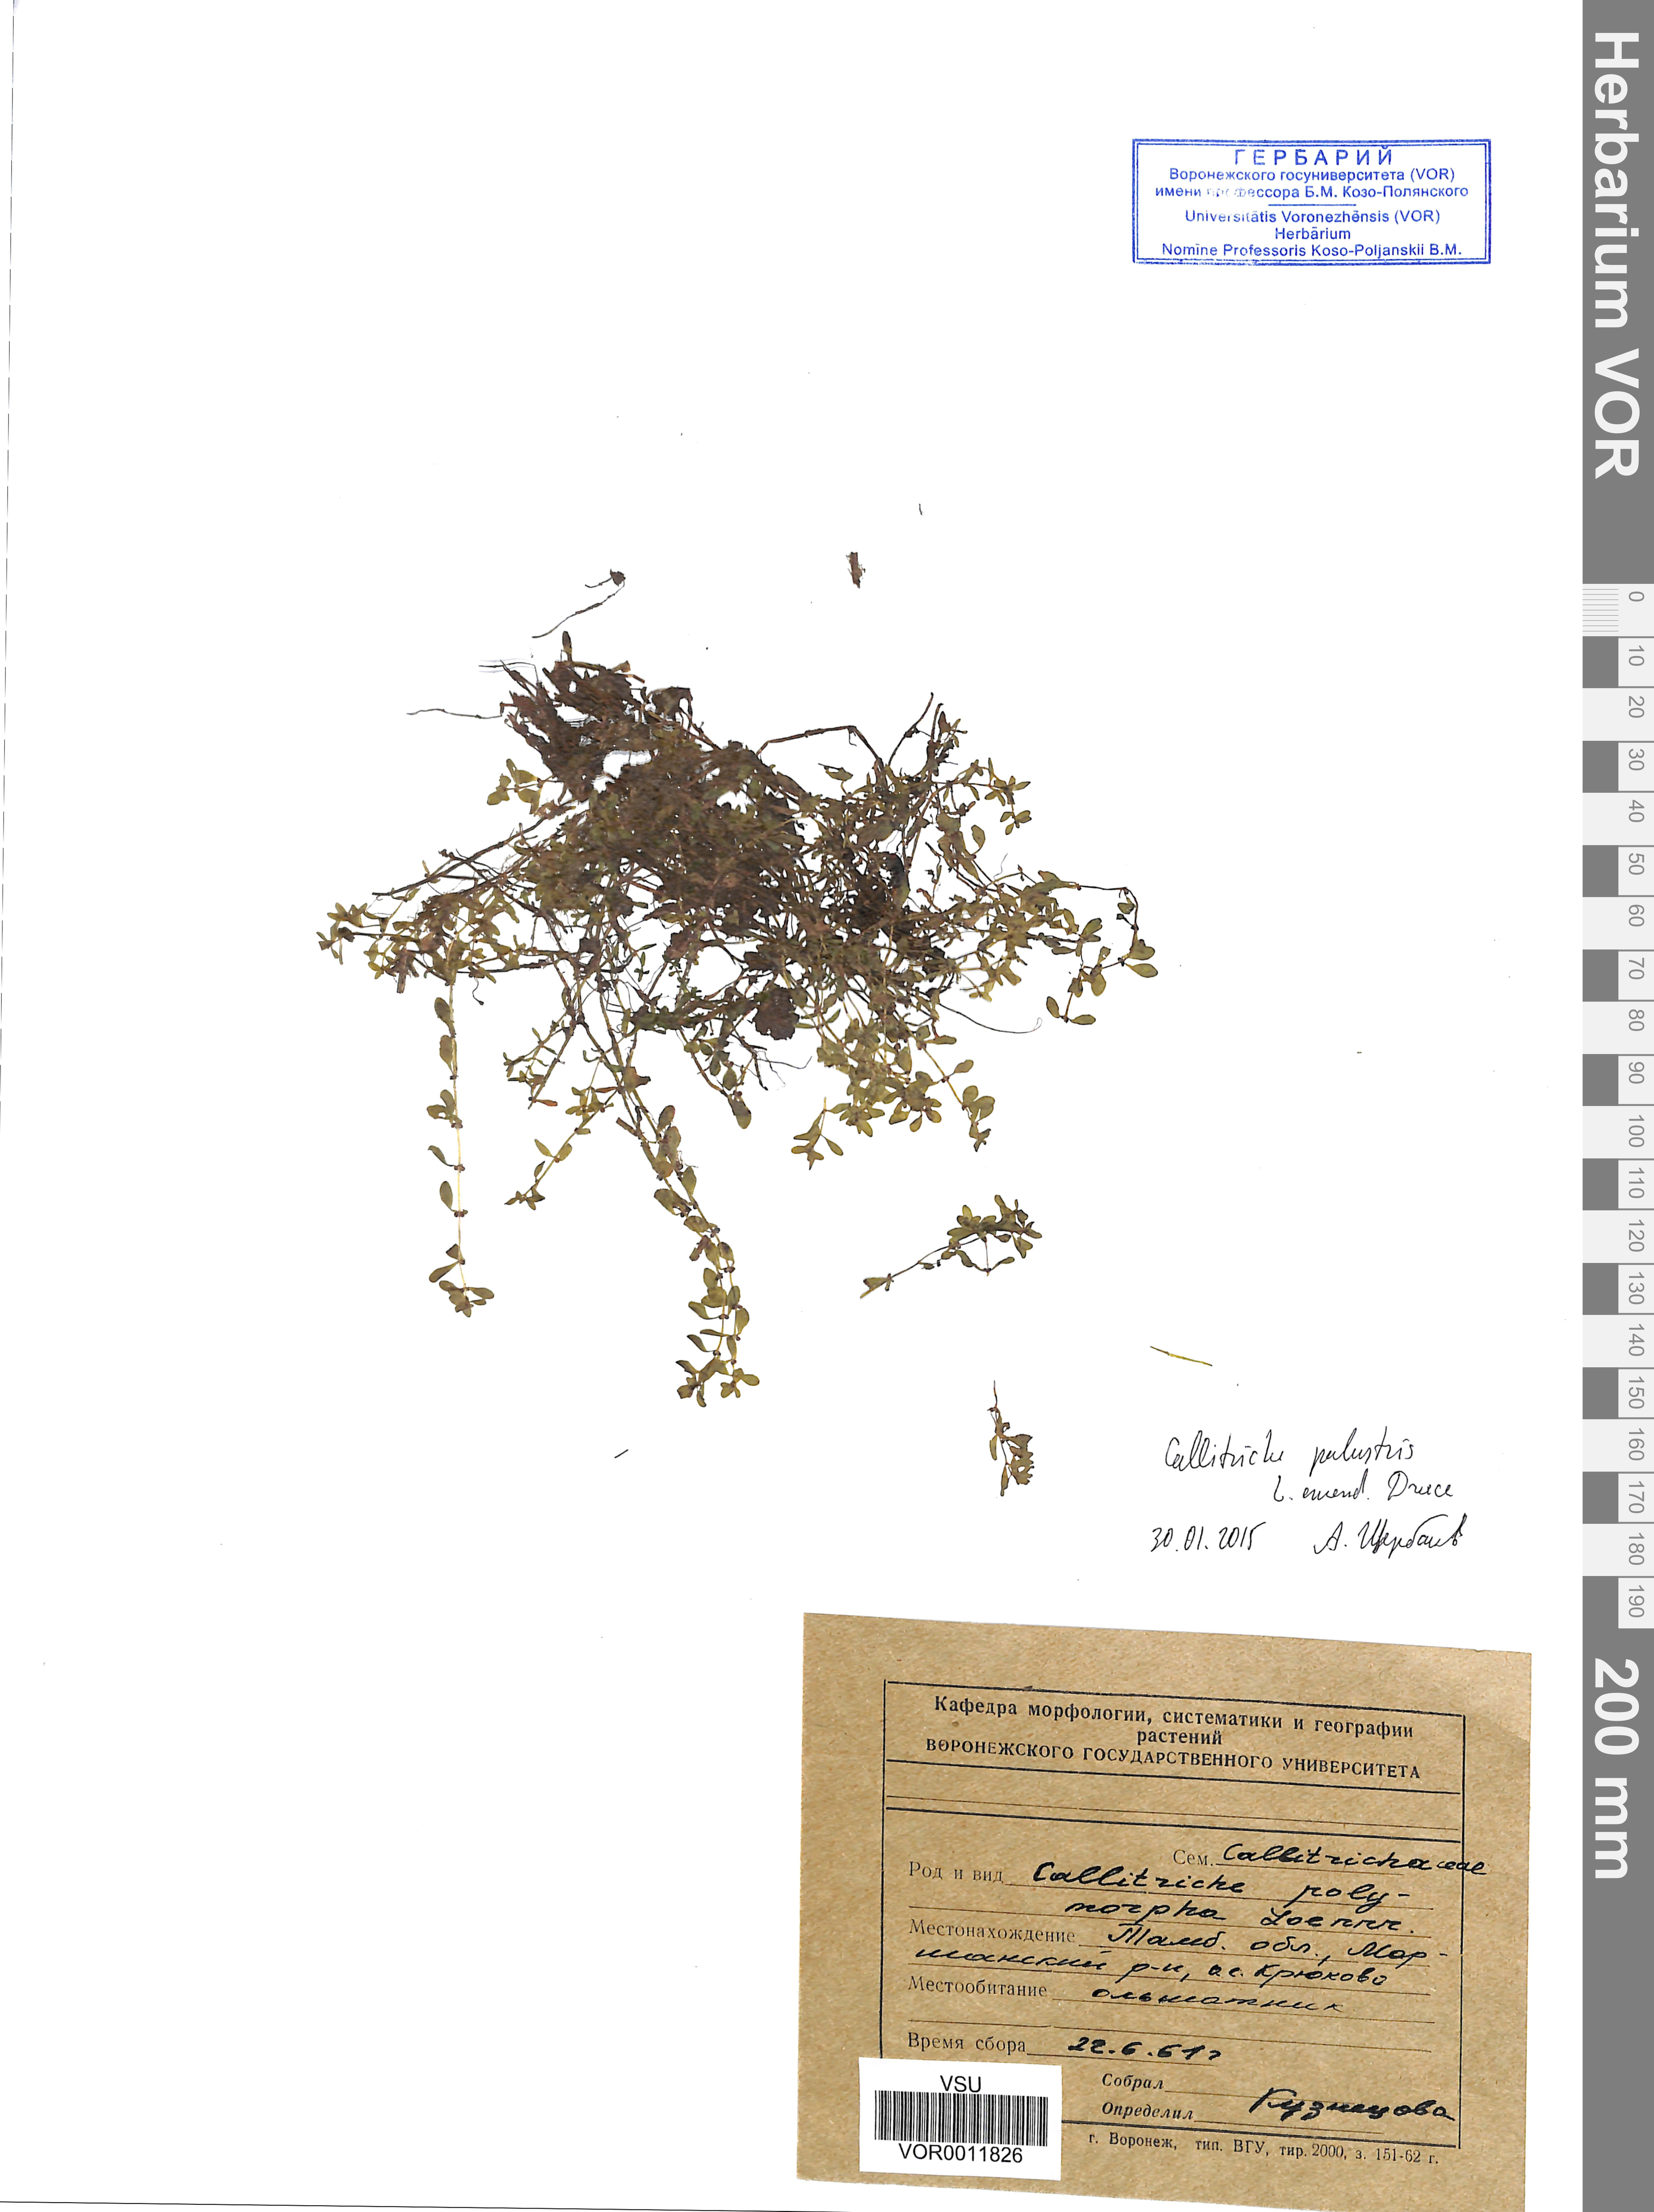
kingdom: Plantae
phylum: Tracheophyta
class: Magnoliopsida
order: Lamiales
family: Plantaginaceae
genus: Callitriche
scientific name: Callitriche palustris
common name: Spring water-starwort
